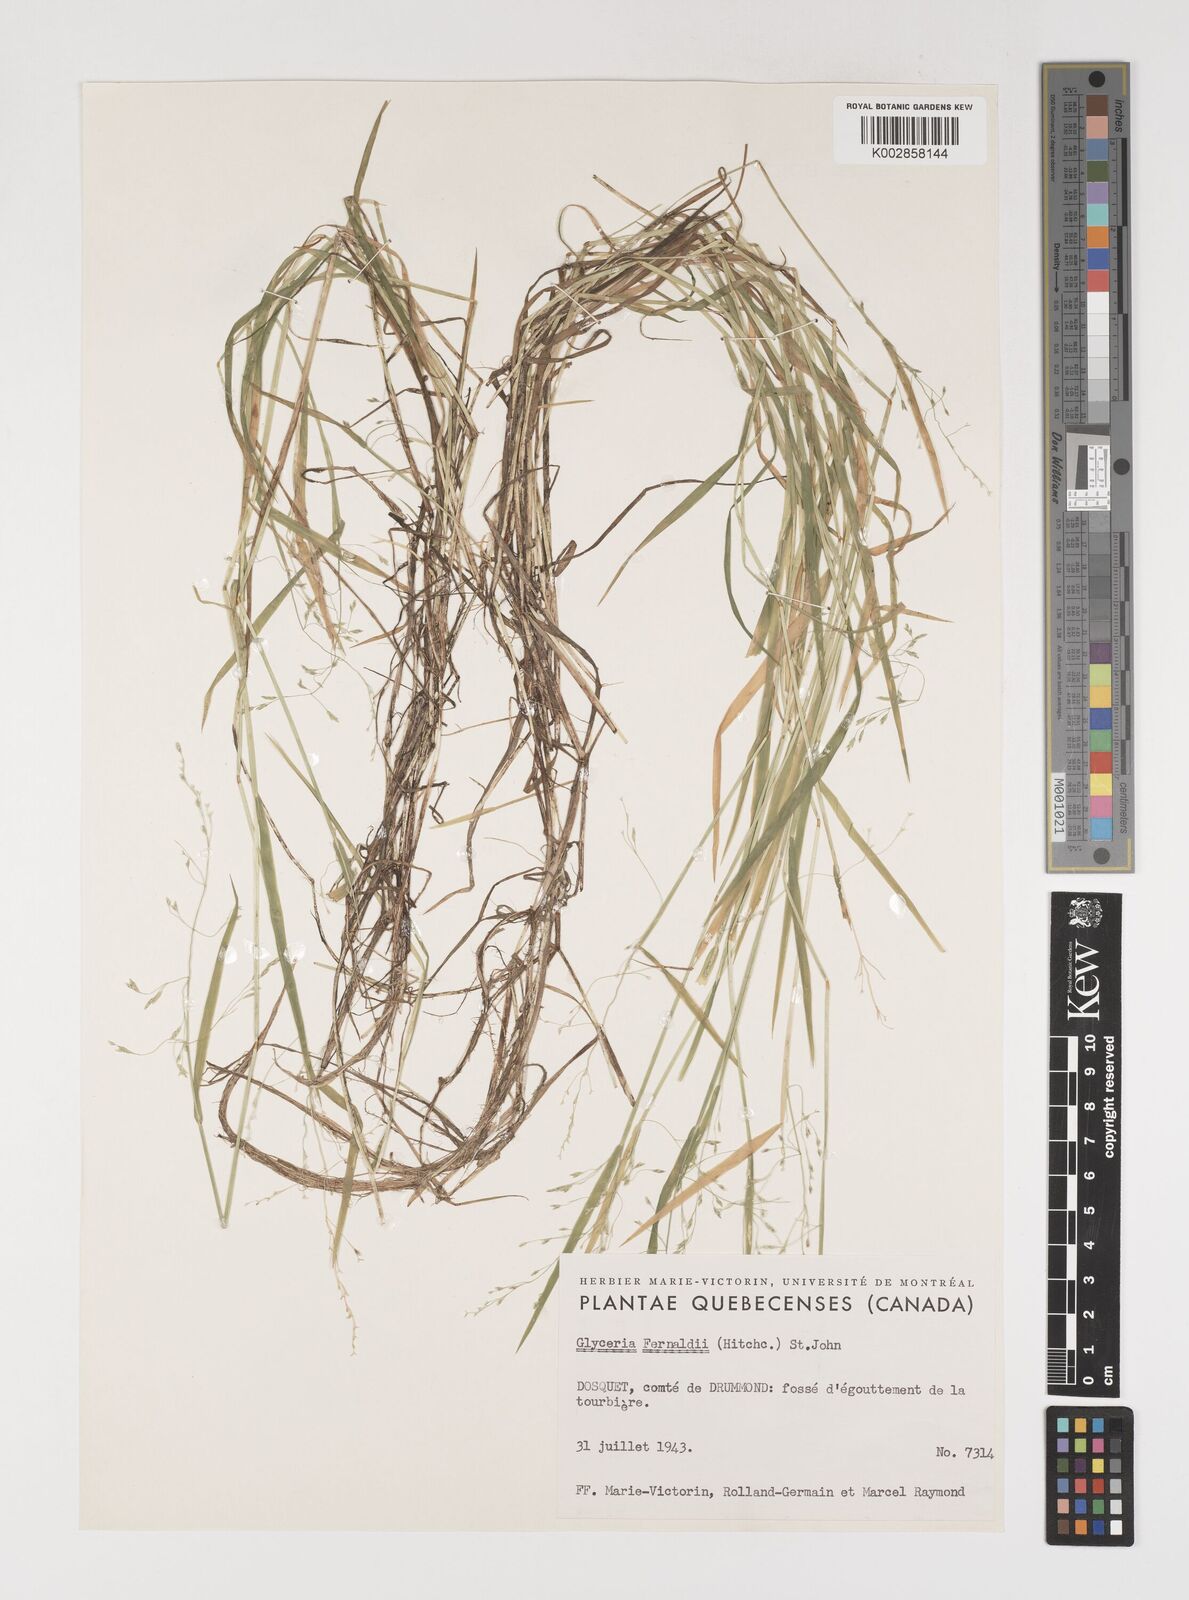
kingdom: Plantae
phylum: Tracheophyta
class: Liliopsida
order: Poales
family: Poaceae
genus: Torreyochloa
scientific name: Torreyochloa pallida
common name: Pale false mannagrass
